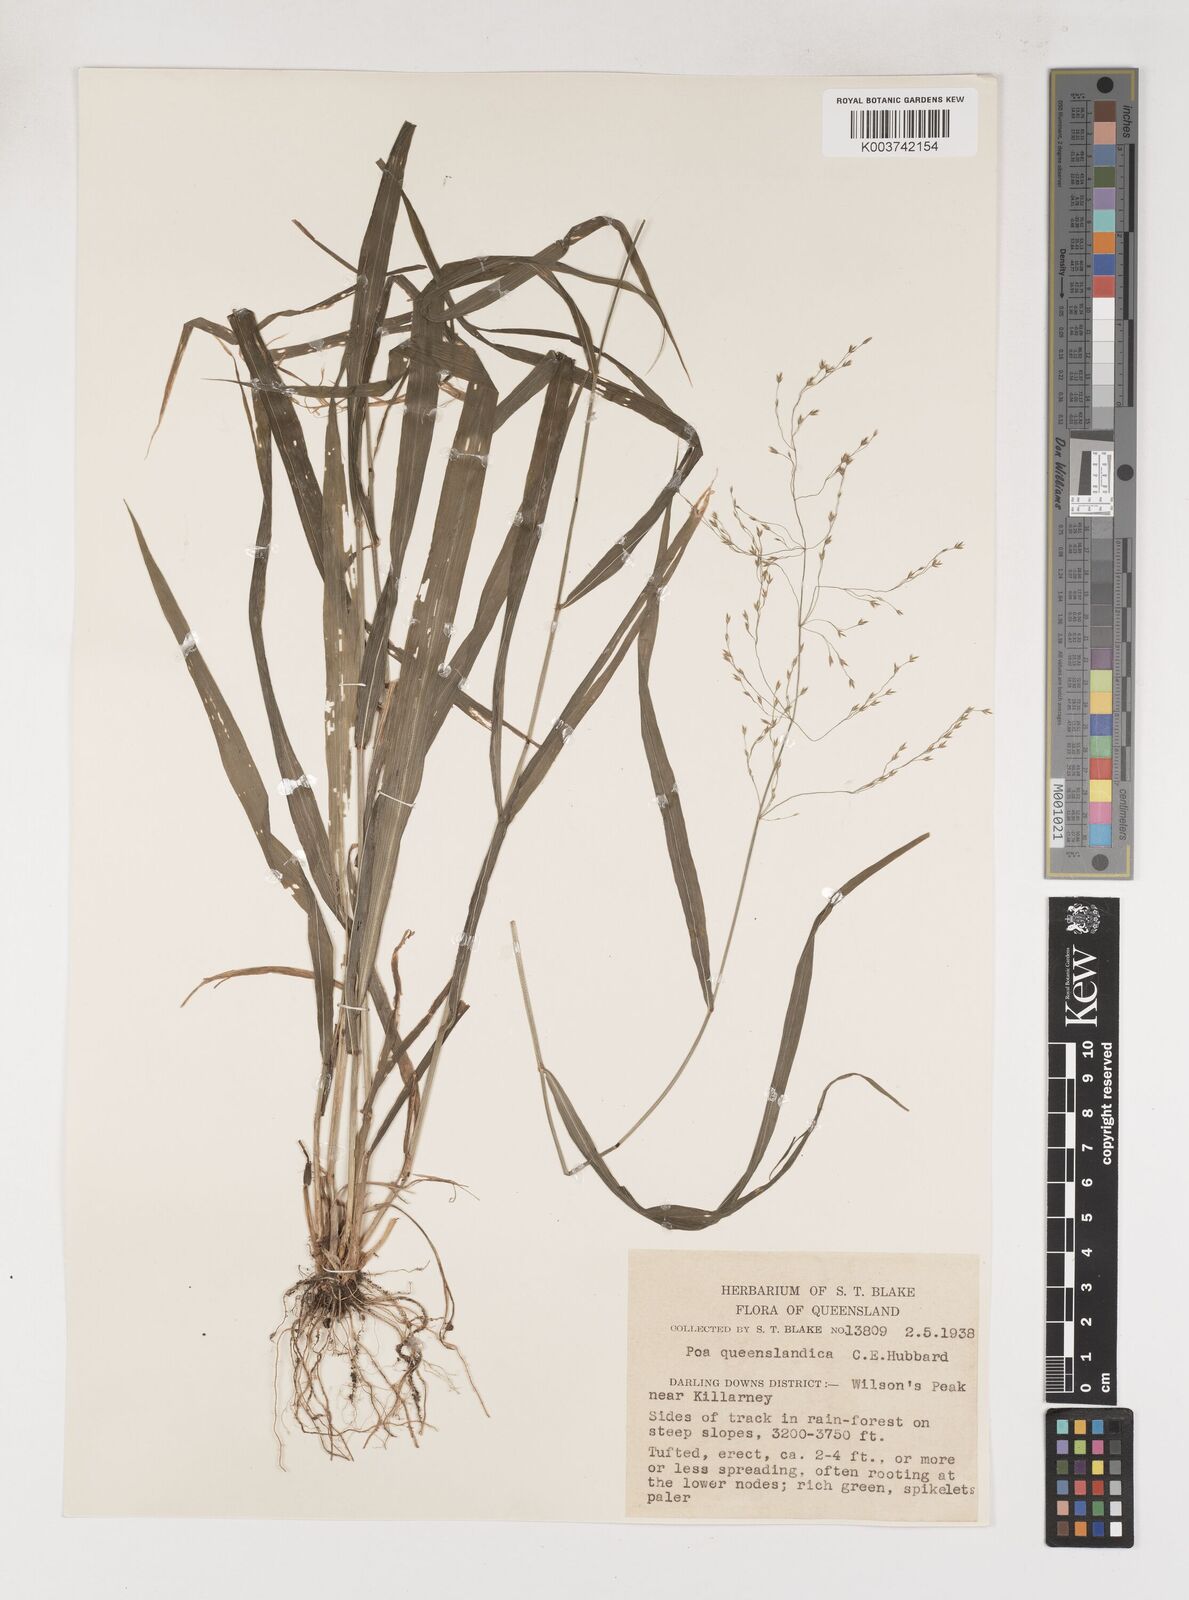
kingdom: Plantae
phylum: Tracheophyta
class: Liliopsida
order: Poales
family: Poaceae
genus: Sylvipoa
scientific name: Sylvipoa queenslandica
